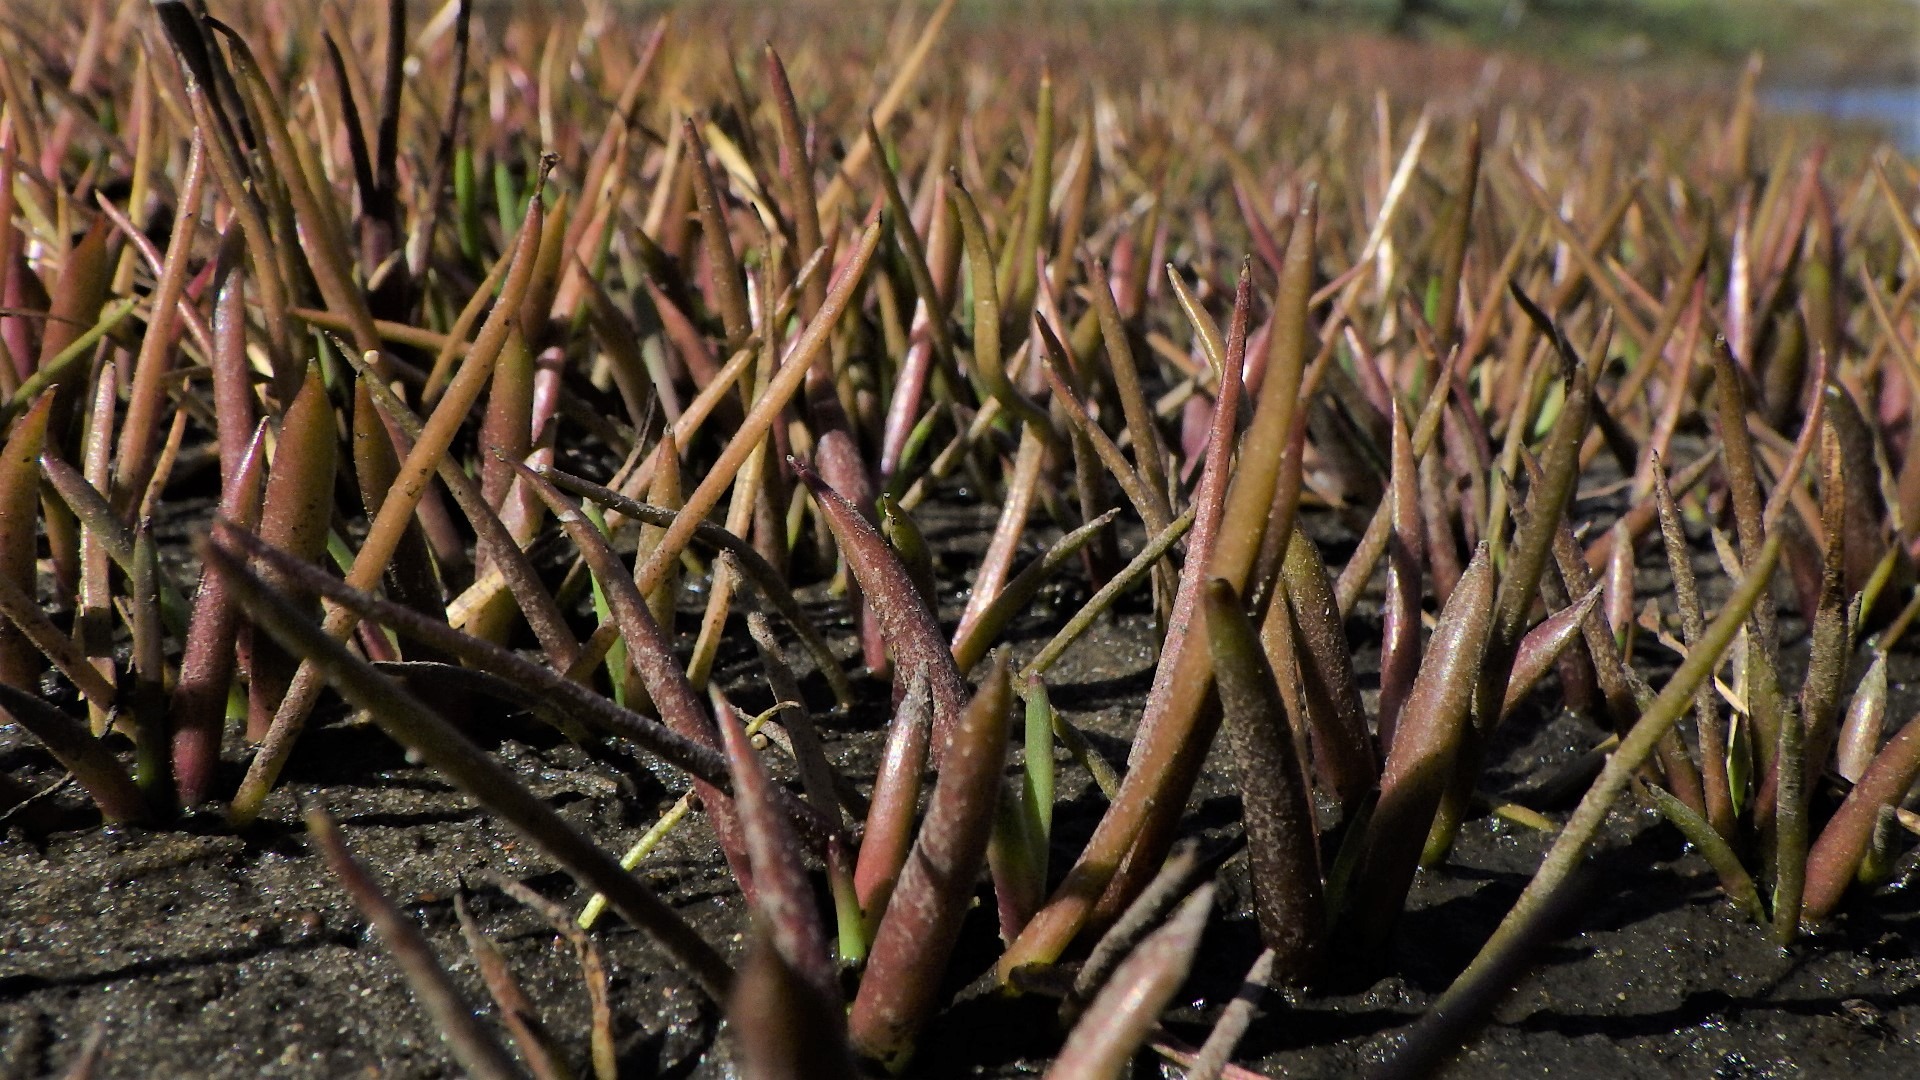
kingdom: Plantae
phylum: Tracheophyta
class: Magnoliopsida
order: Lamiales
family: Plantaginaceae
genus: Littorella
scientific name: Littorella uniflora
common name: Strandbo
